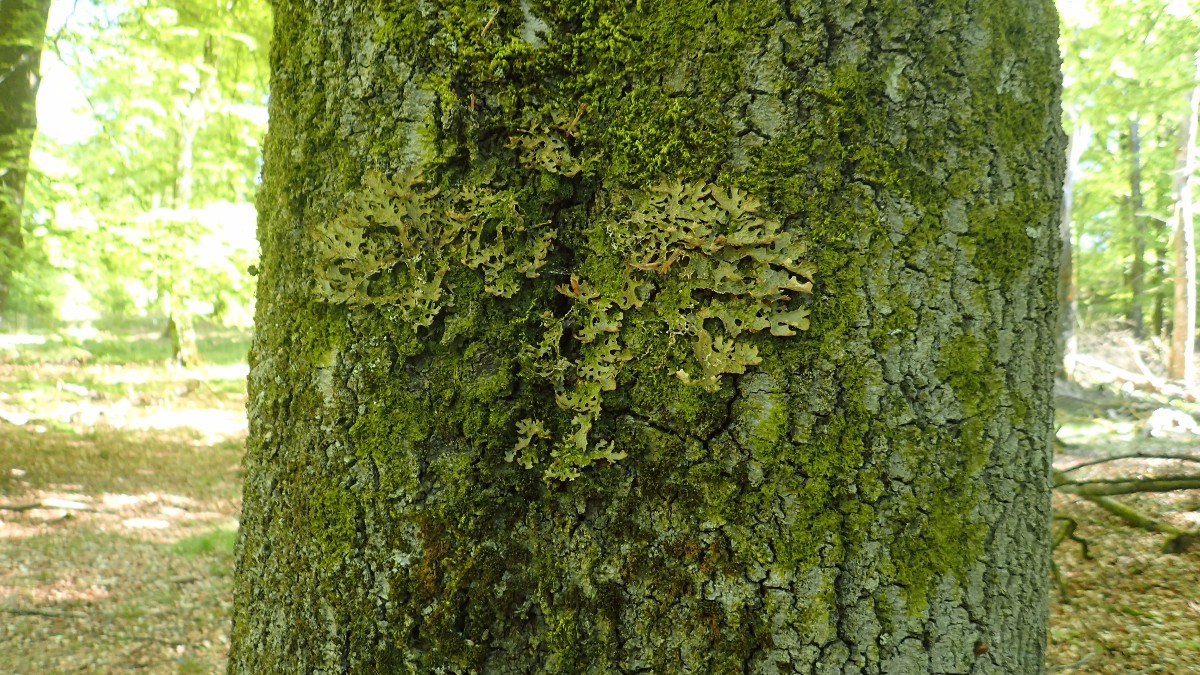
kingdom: Fungi
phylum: Ascomycota
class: Lecanoromycetes
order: Peltigerales
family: Lobariaceae
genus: Lobaria
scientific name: Lobaria pulmonaria
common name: almindelig lungelav
